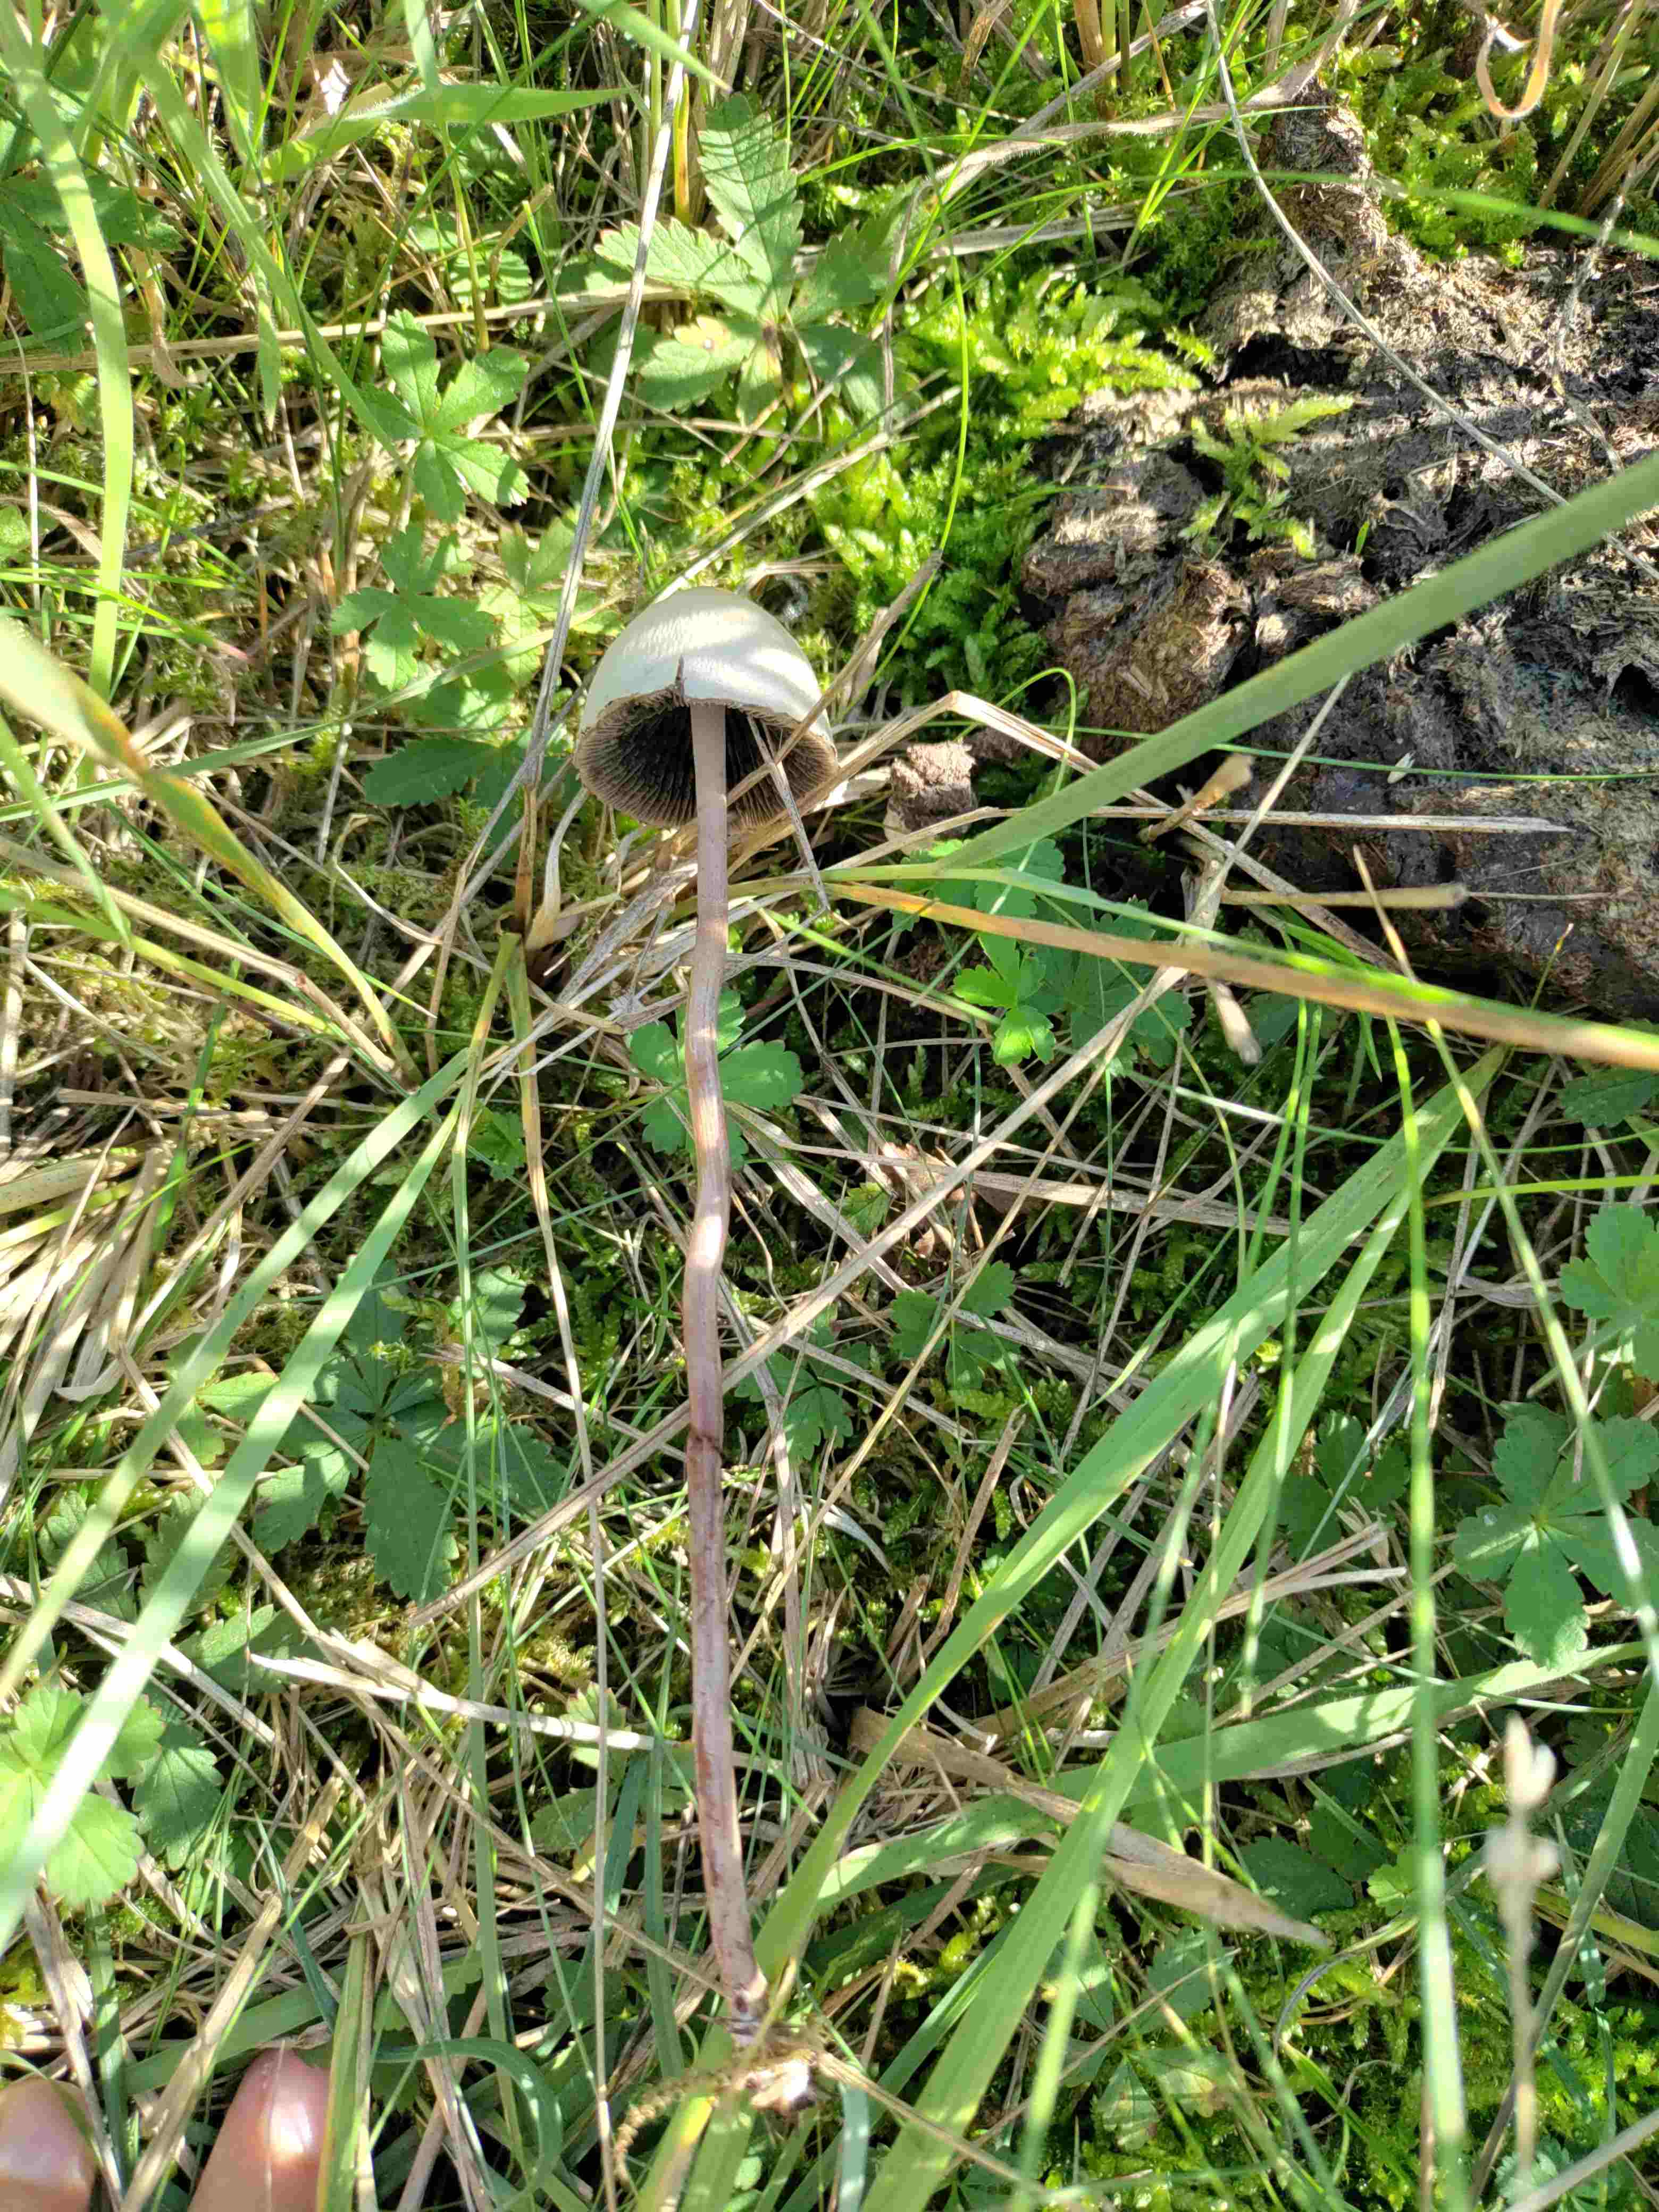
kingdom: Fungi
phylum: Basidiomycota
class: Agaricomycetes
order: Agaricales
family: Bolbitiaceae
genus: Panaeolus
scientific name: Panaeolus papilionaceus
